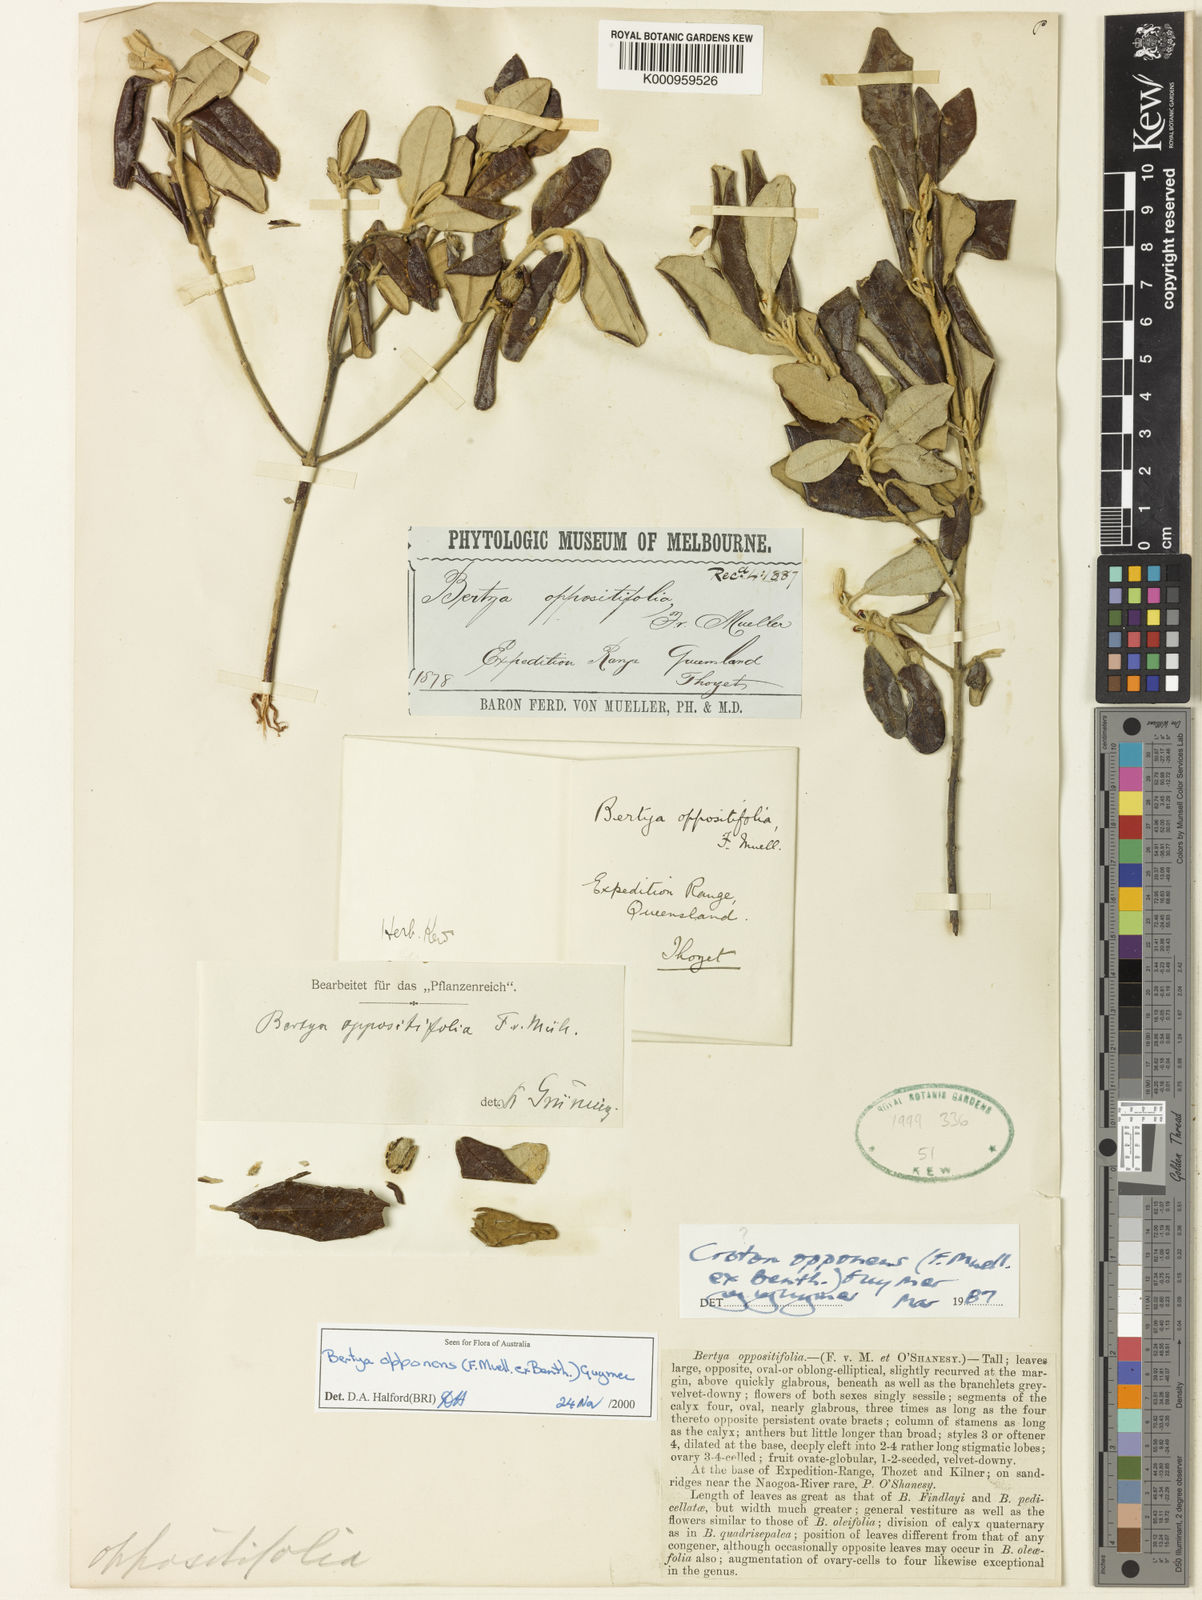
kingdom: Plantae
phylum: Tracheophyta
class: Magnoliopsida
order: Malpighiales
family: Euphorbiaceae
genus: Bertya
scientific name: Bertya opponens
